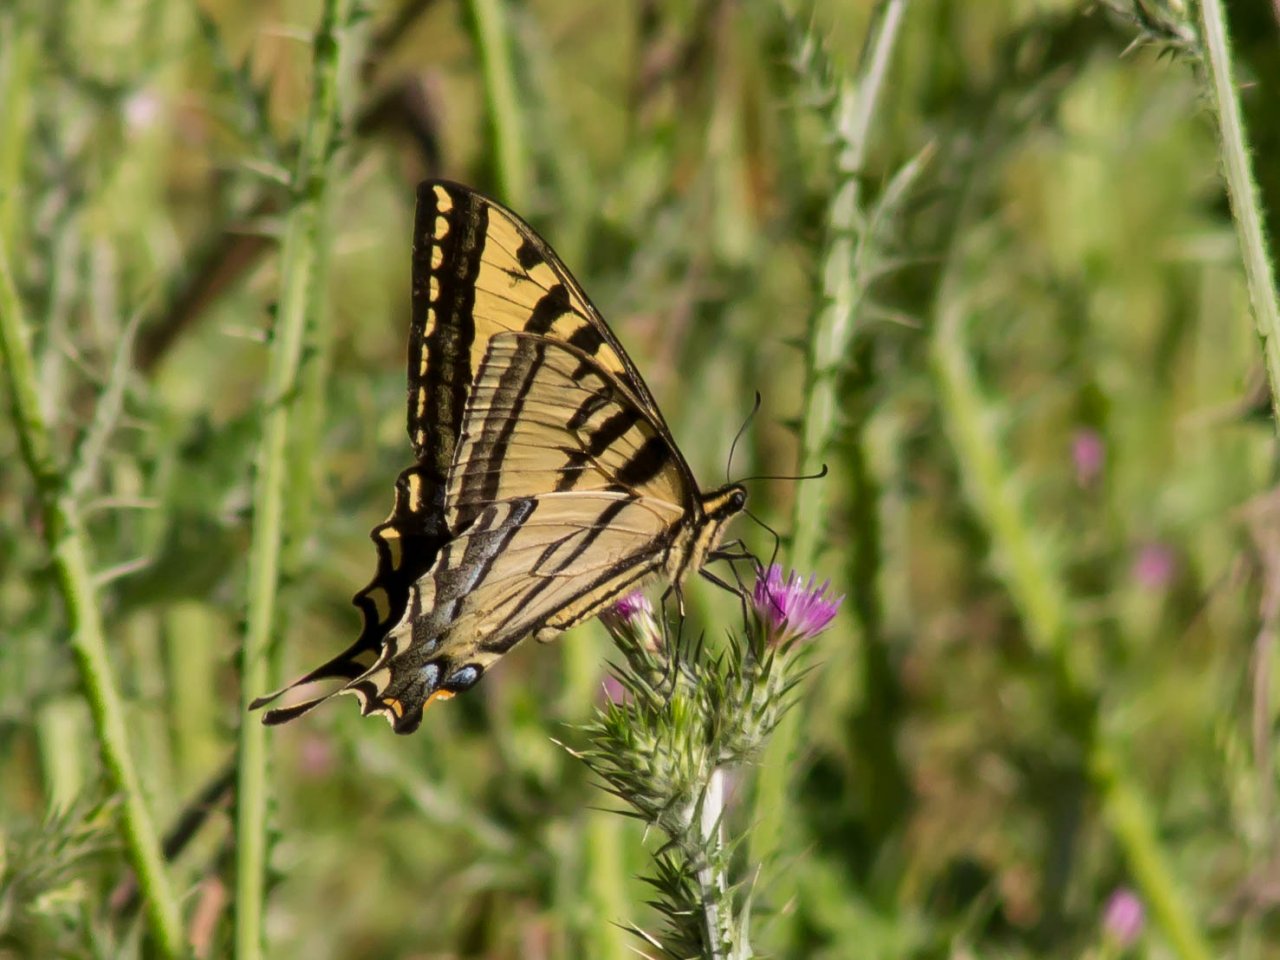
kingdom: Animalia
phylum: Arthropoda
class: Insecta
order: Lepidoptera
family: Papilionidae
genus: Pterourus
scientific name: Pterourus rutulus
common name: Western Tiger Swallowtail
